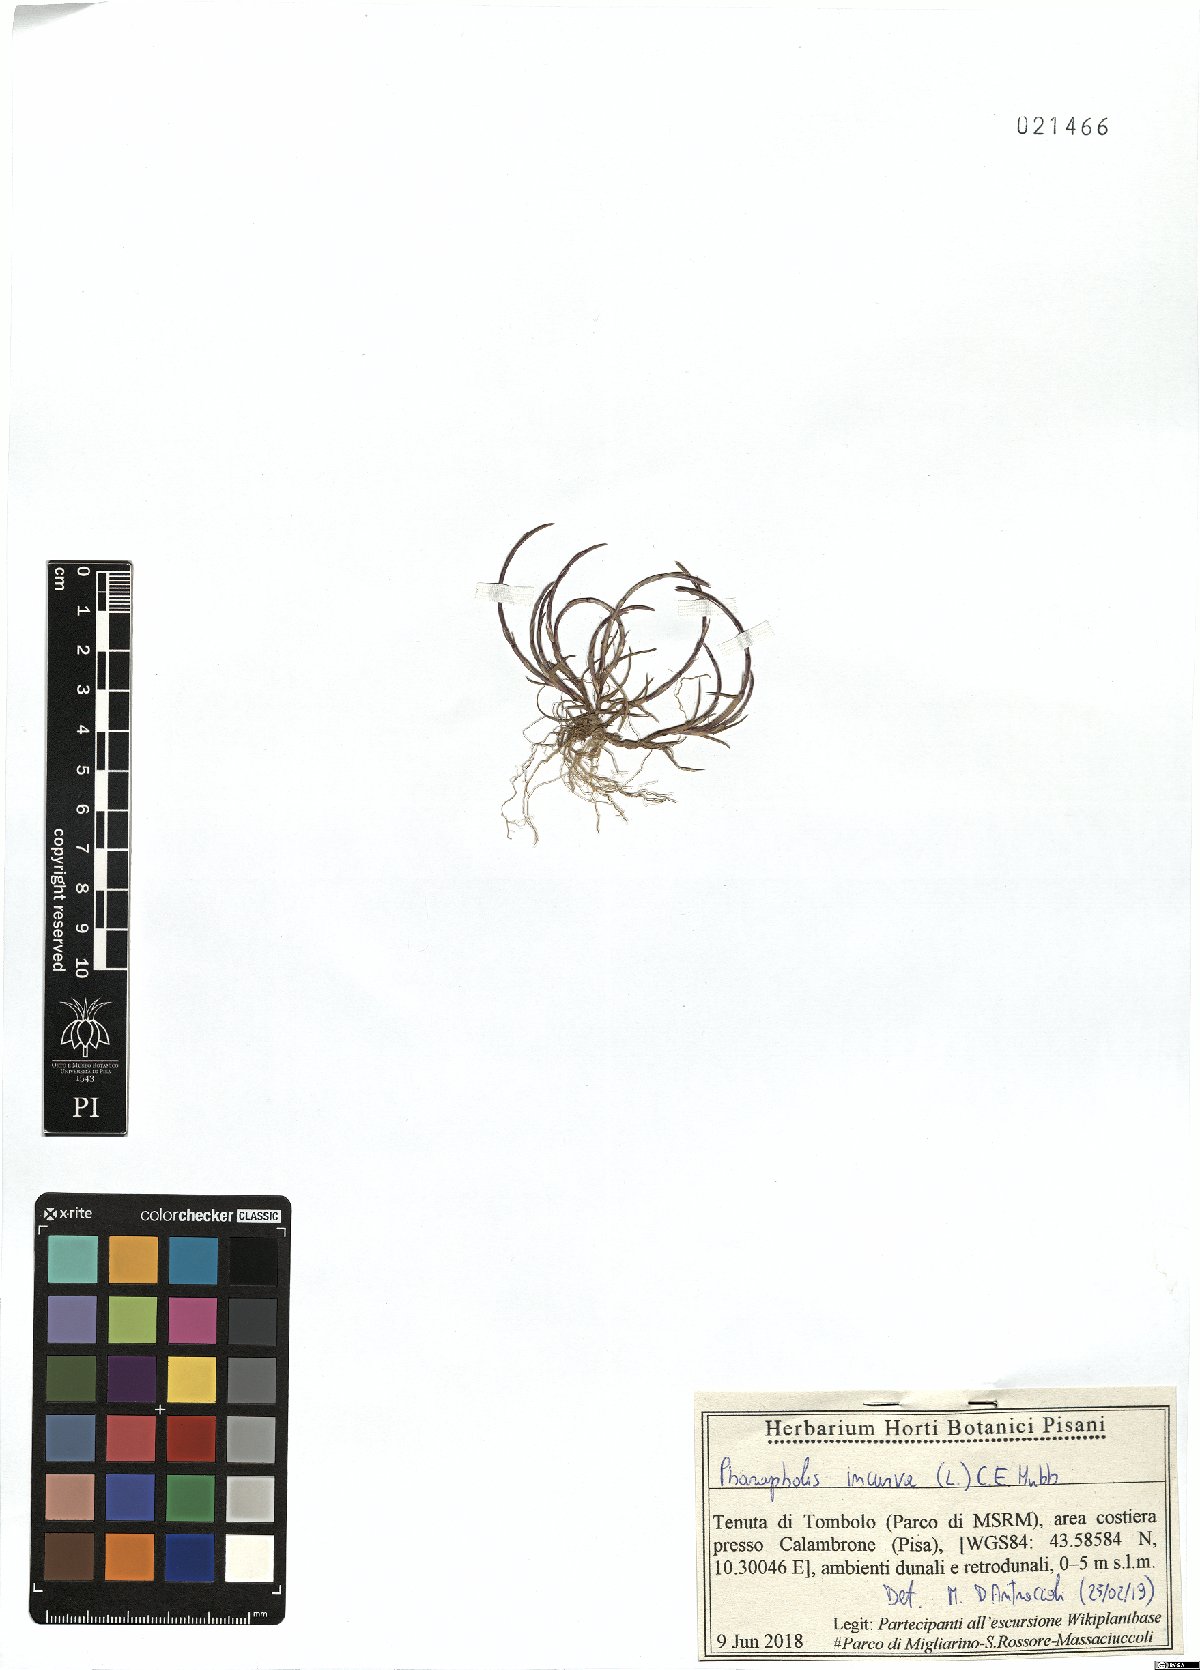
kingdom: Plantae
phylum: Tracheophyta
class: Liliopsida
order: Poales
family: Poaceae
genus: Parapholis
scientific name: Parapholis incurva
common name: Curved sicklegrass
